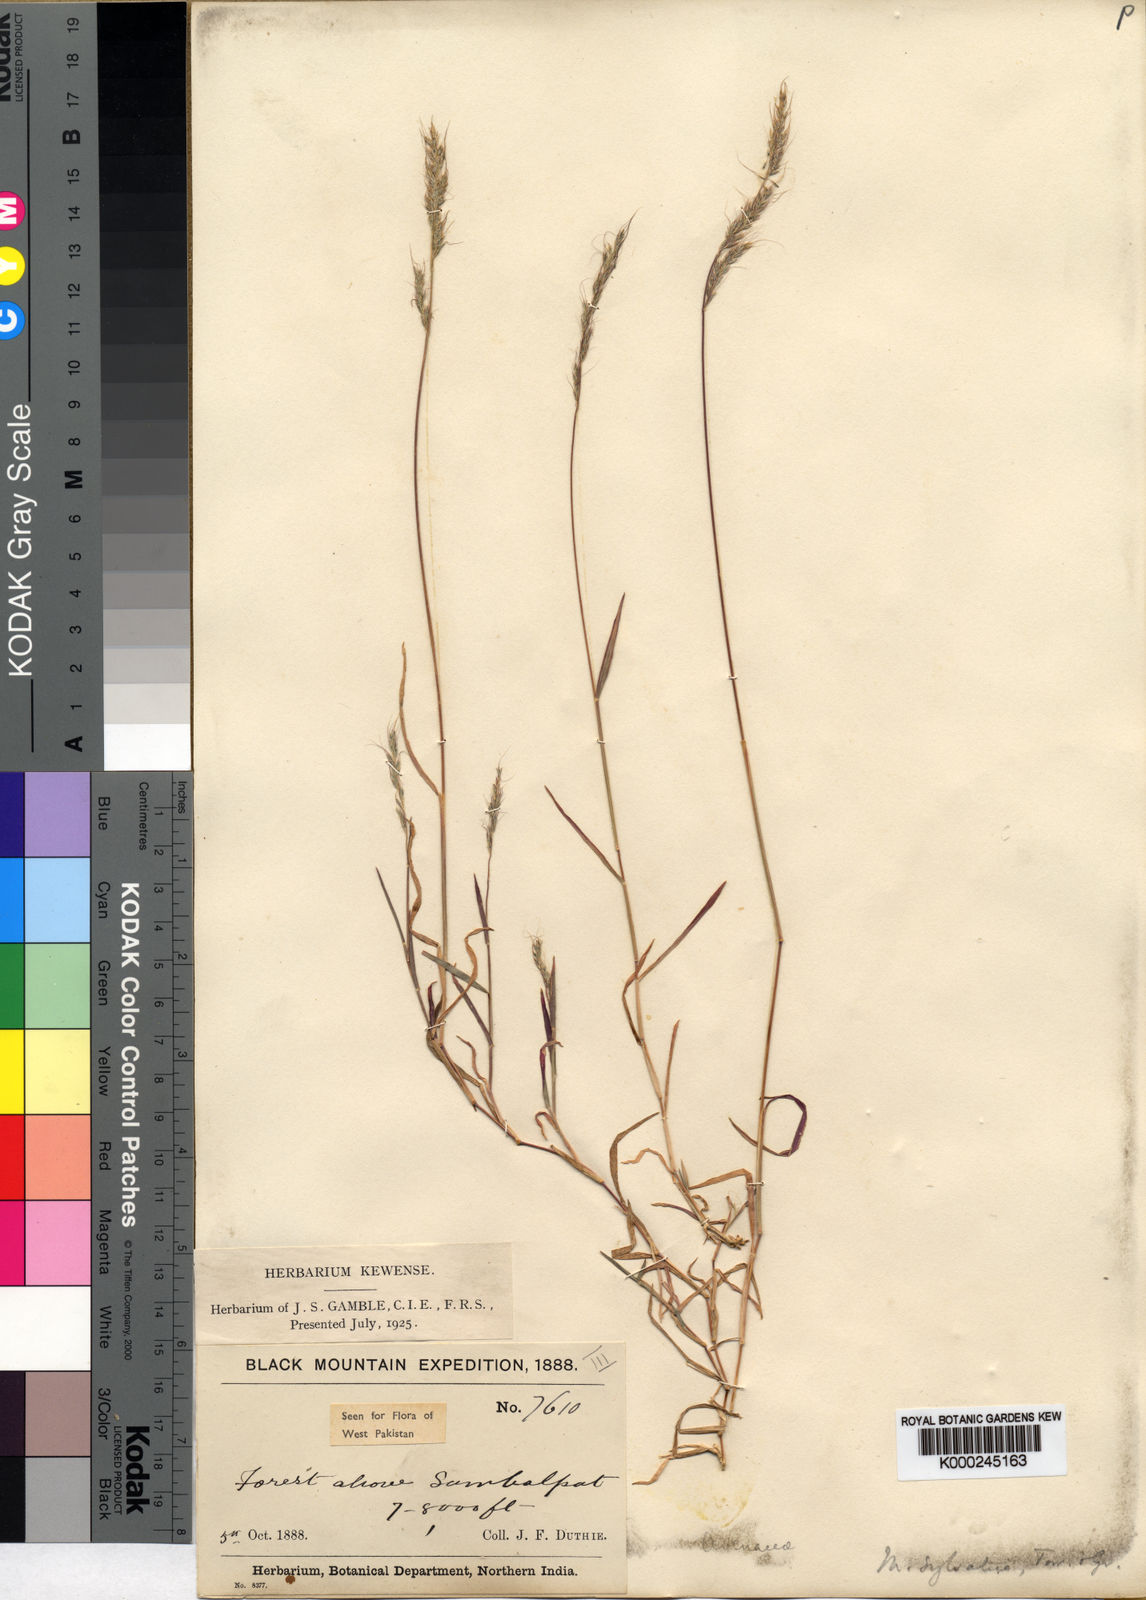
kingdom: Plantae
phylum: Tracheophyta
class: Liliopsida
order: Poales
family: Poaceae
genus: Muhlenbergia
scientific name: Muhlenbergia duthieana
